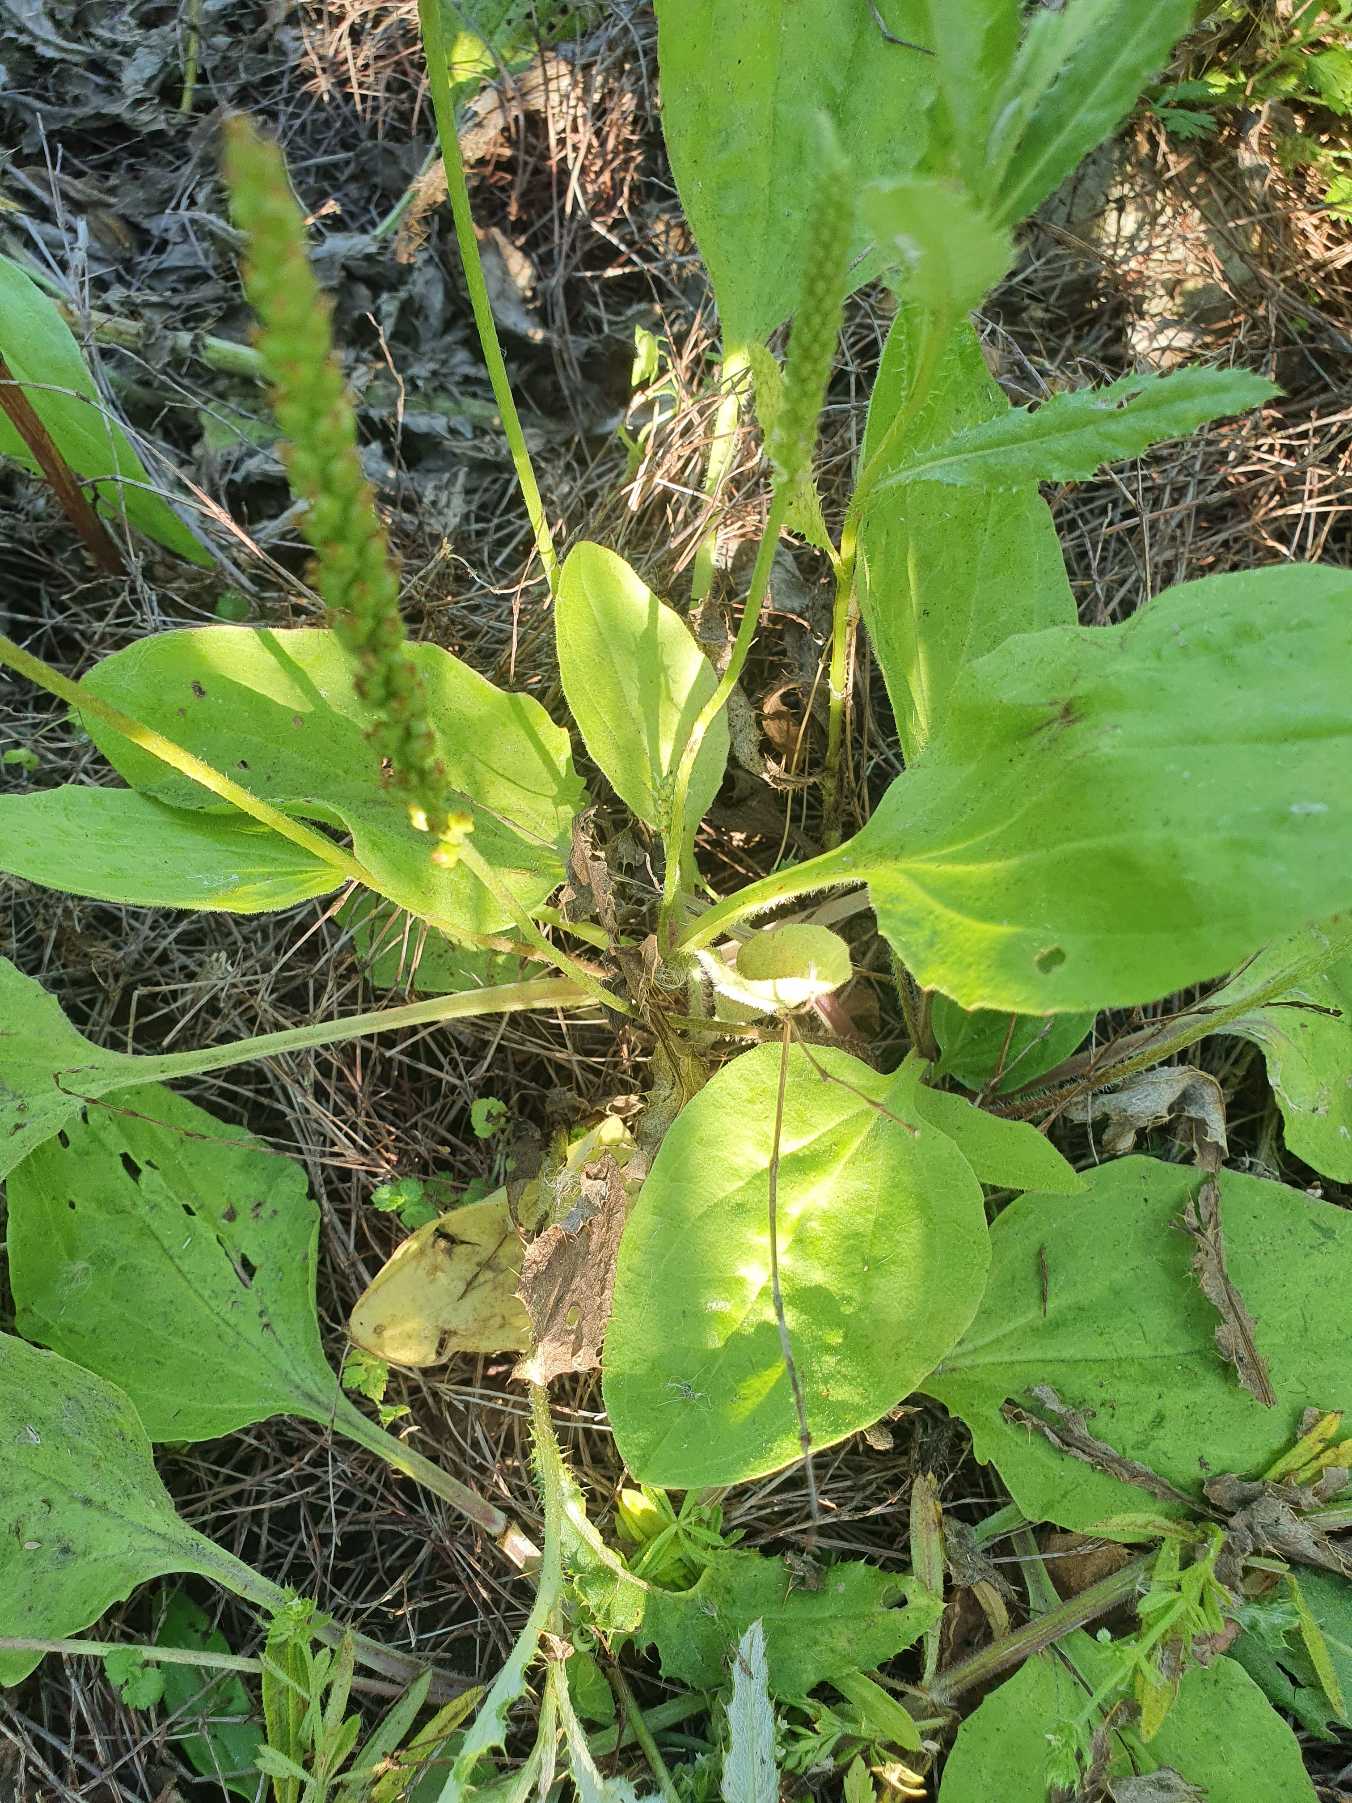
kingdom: Plantae
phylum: Tracheophyta
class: Magnoliopsida
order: Lamiales
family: Plantaginaceae
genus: Plantago
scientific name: Plantago major
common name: Glat vejbred
